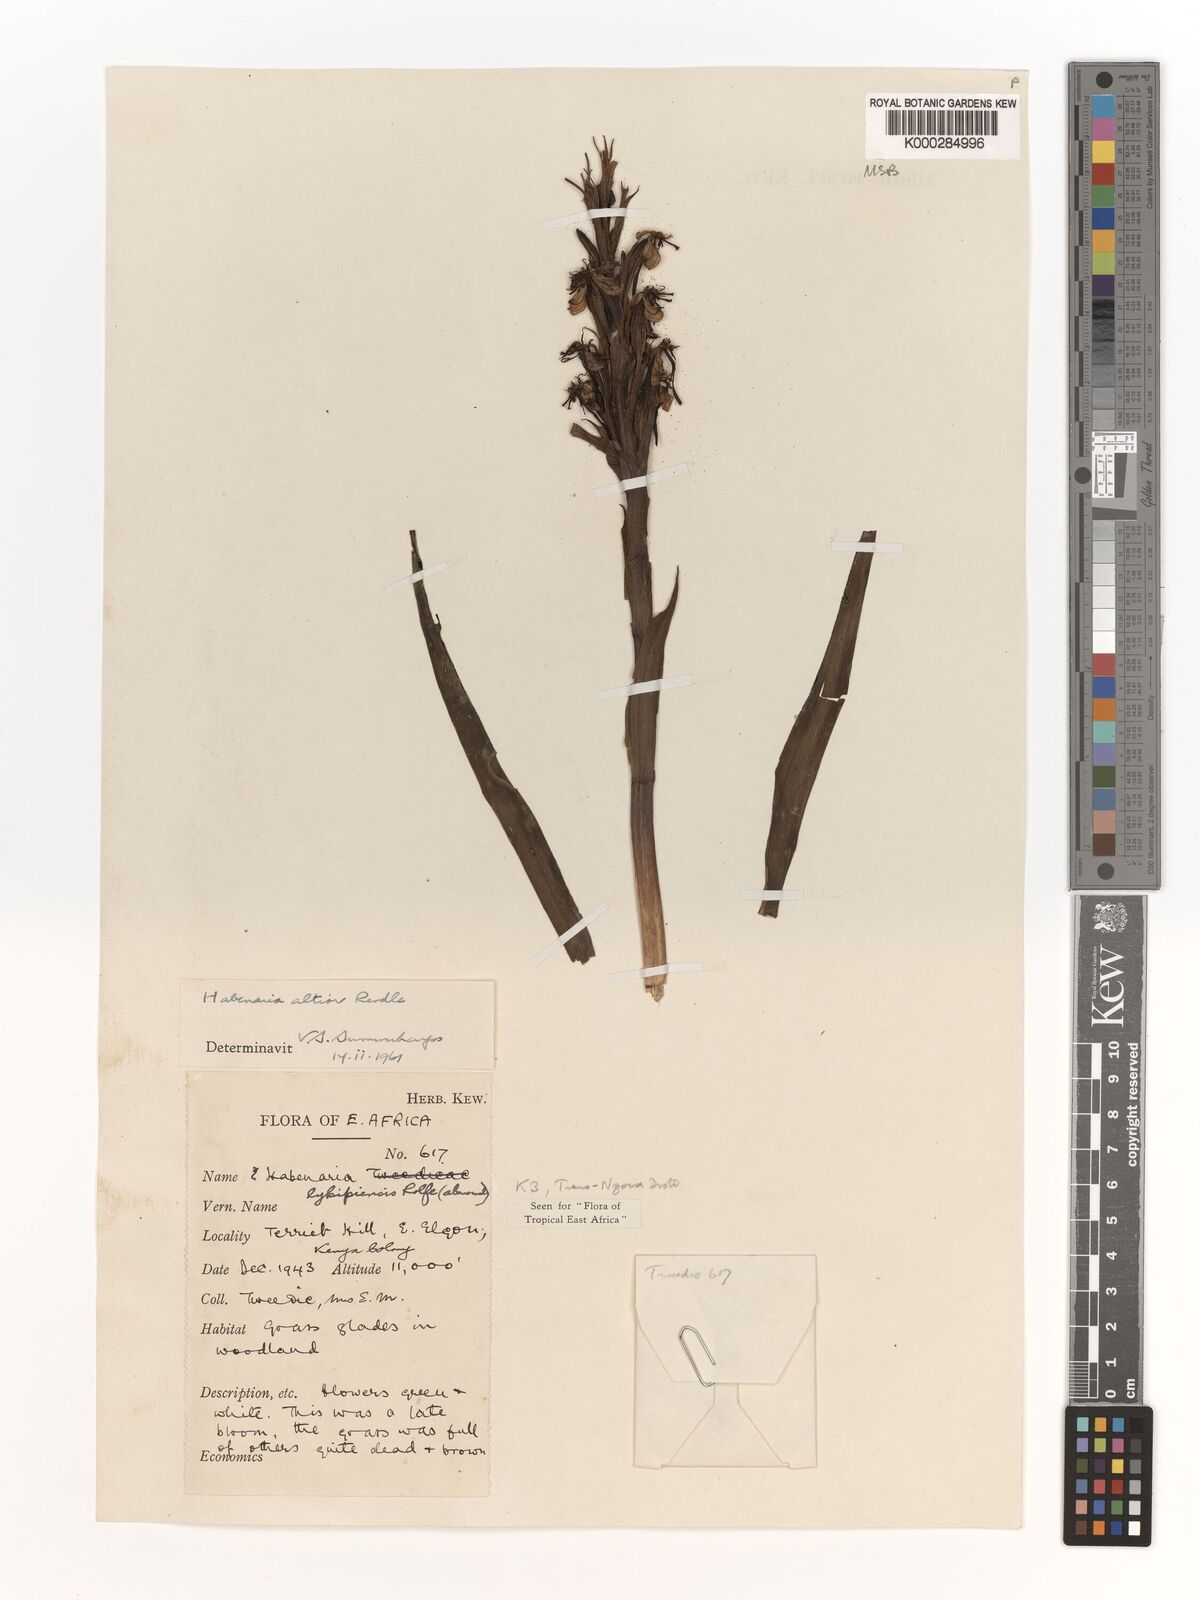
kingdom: Plantae
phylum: Tracheophyta
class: Liliopsida
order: Asparagales
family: Orchidaceae
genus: Habenaria
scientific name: Habenaria altior
